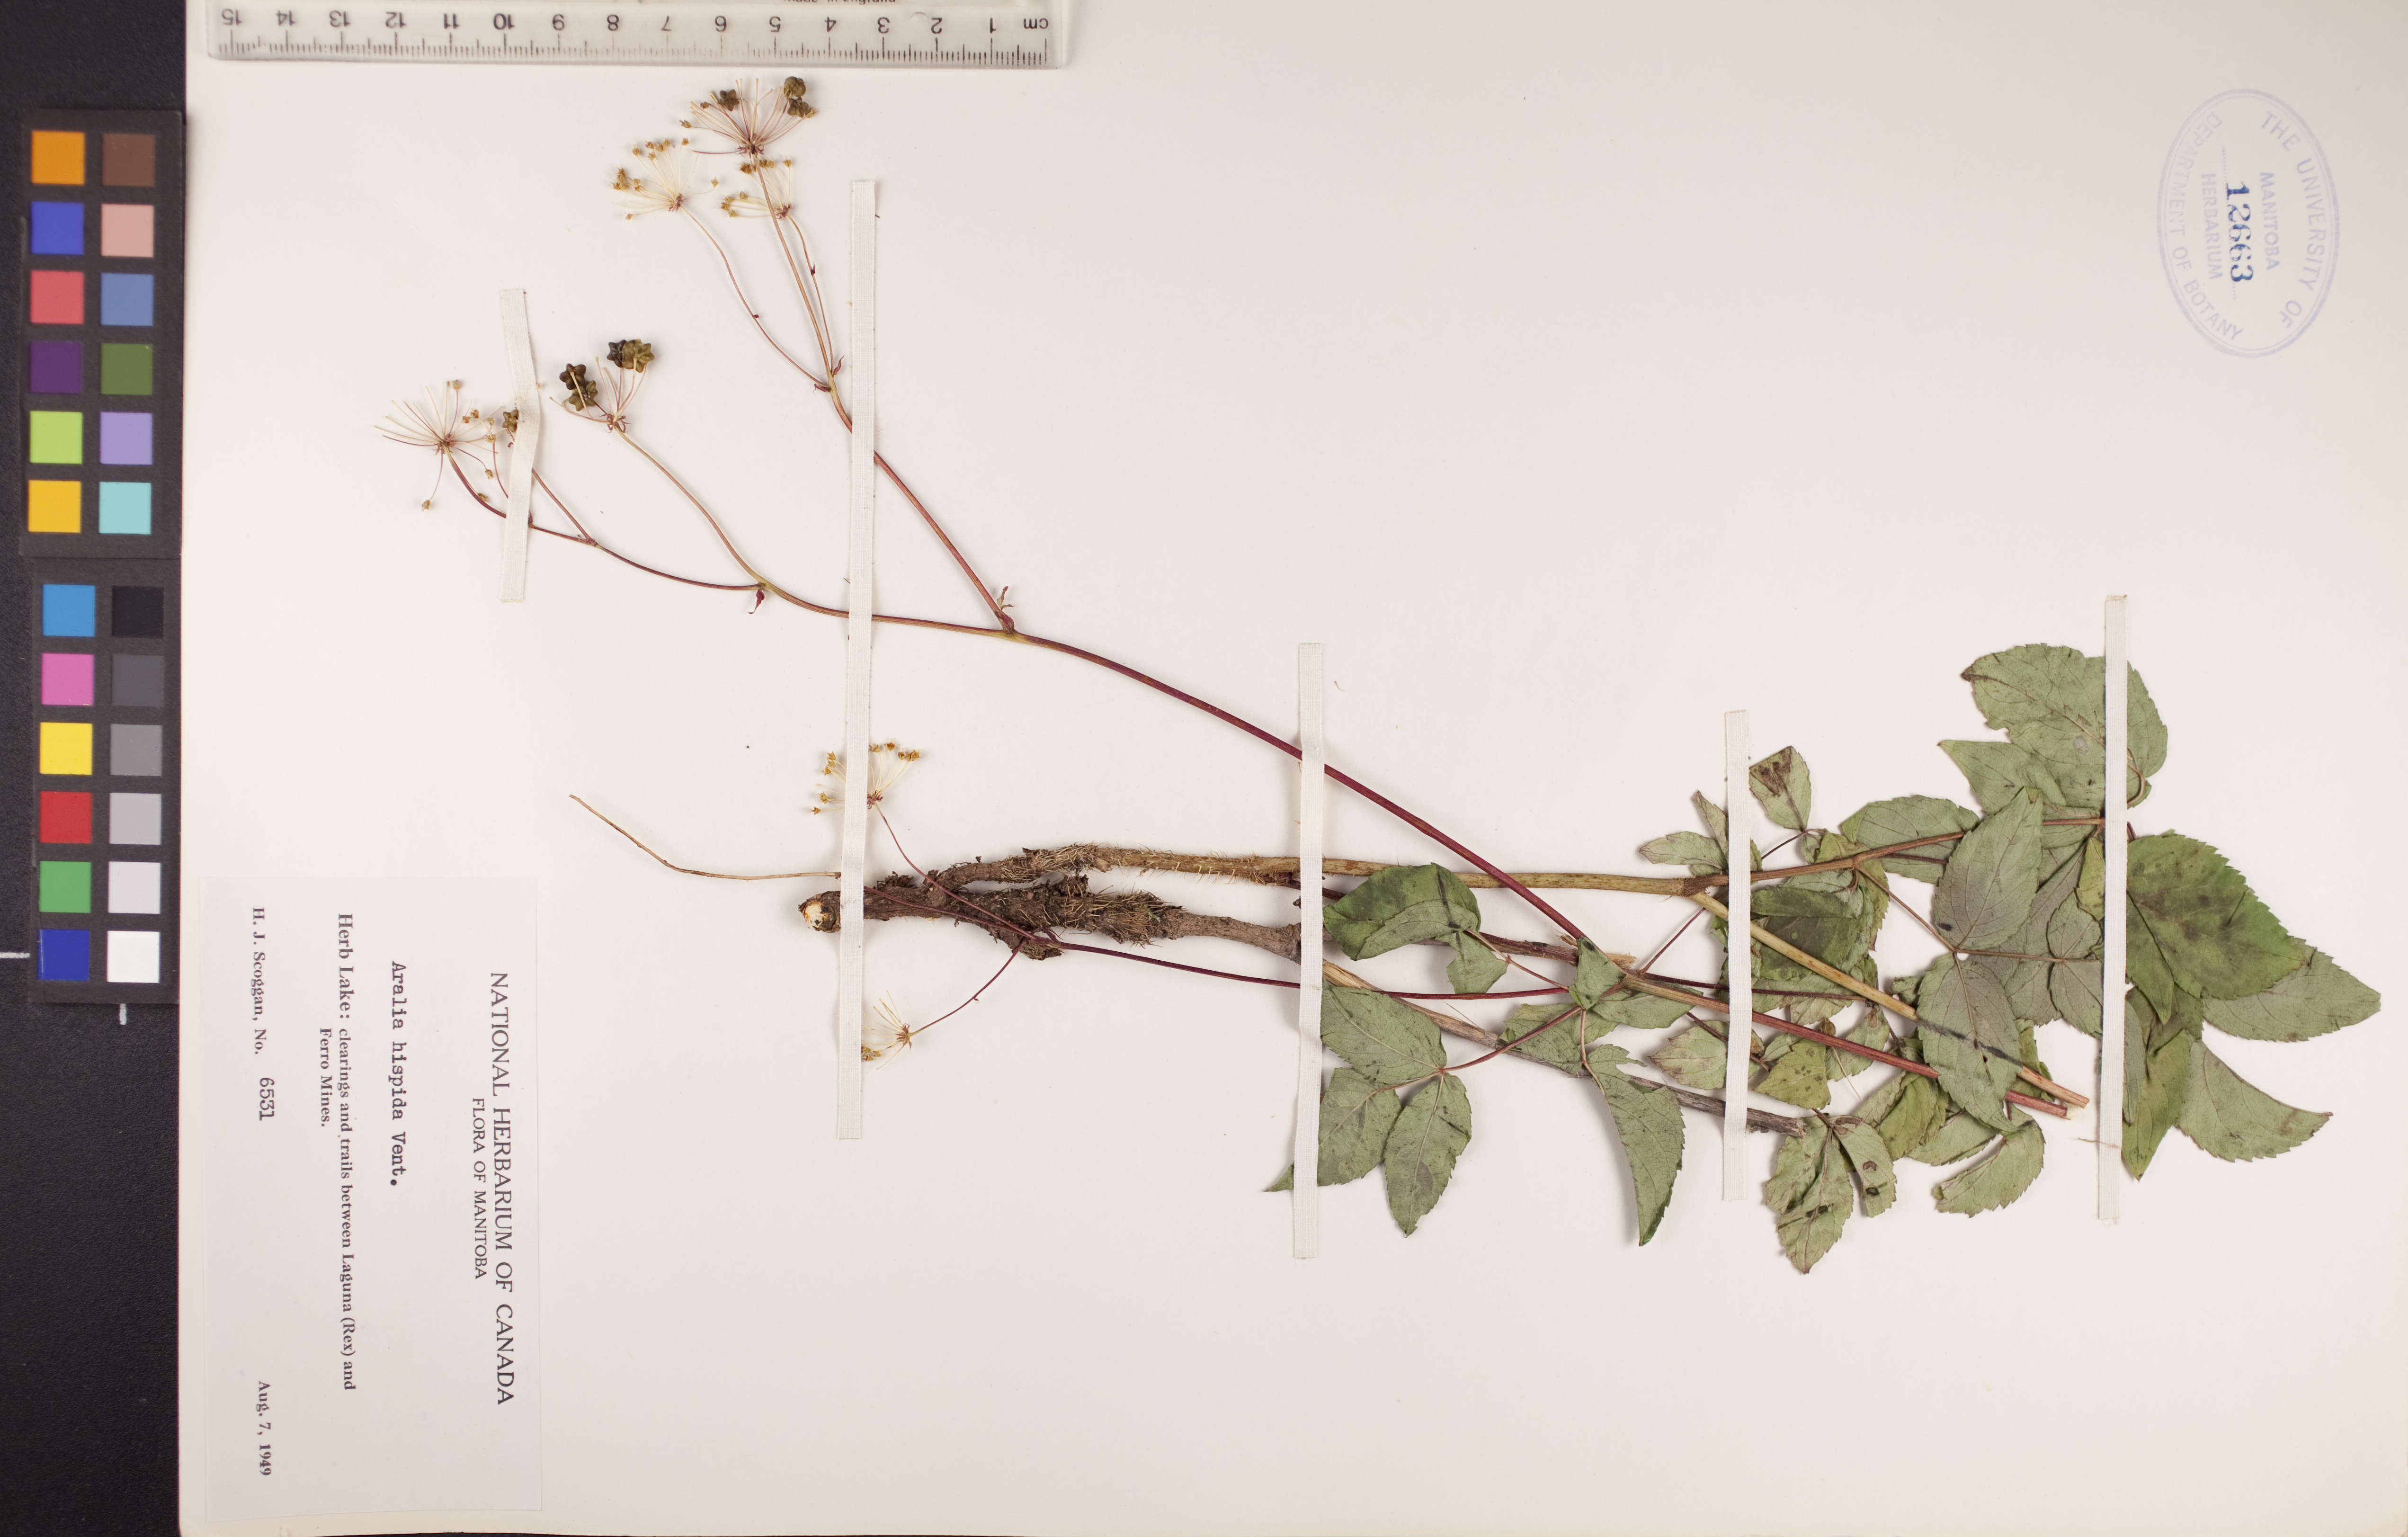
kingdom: Plantae
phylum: Tracheophyta
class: Magnoliopsida
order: Apiales
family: Araliaceae
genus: Aralia
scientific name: Aralia hispida
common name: Bristly sarsaparilla
